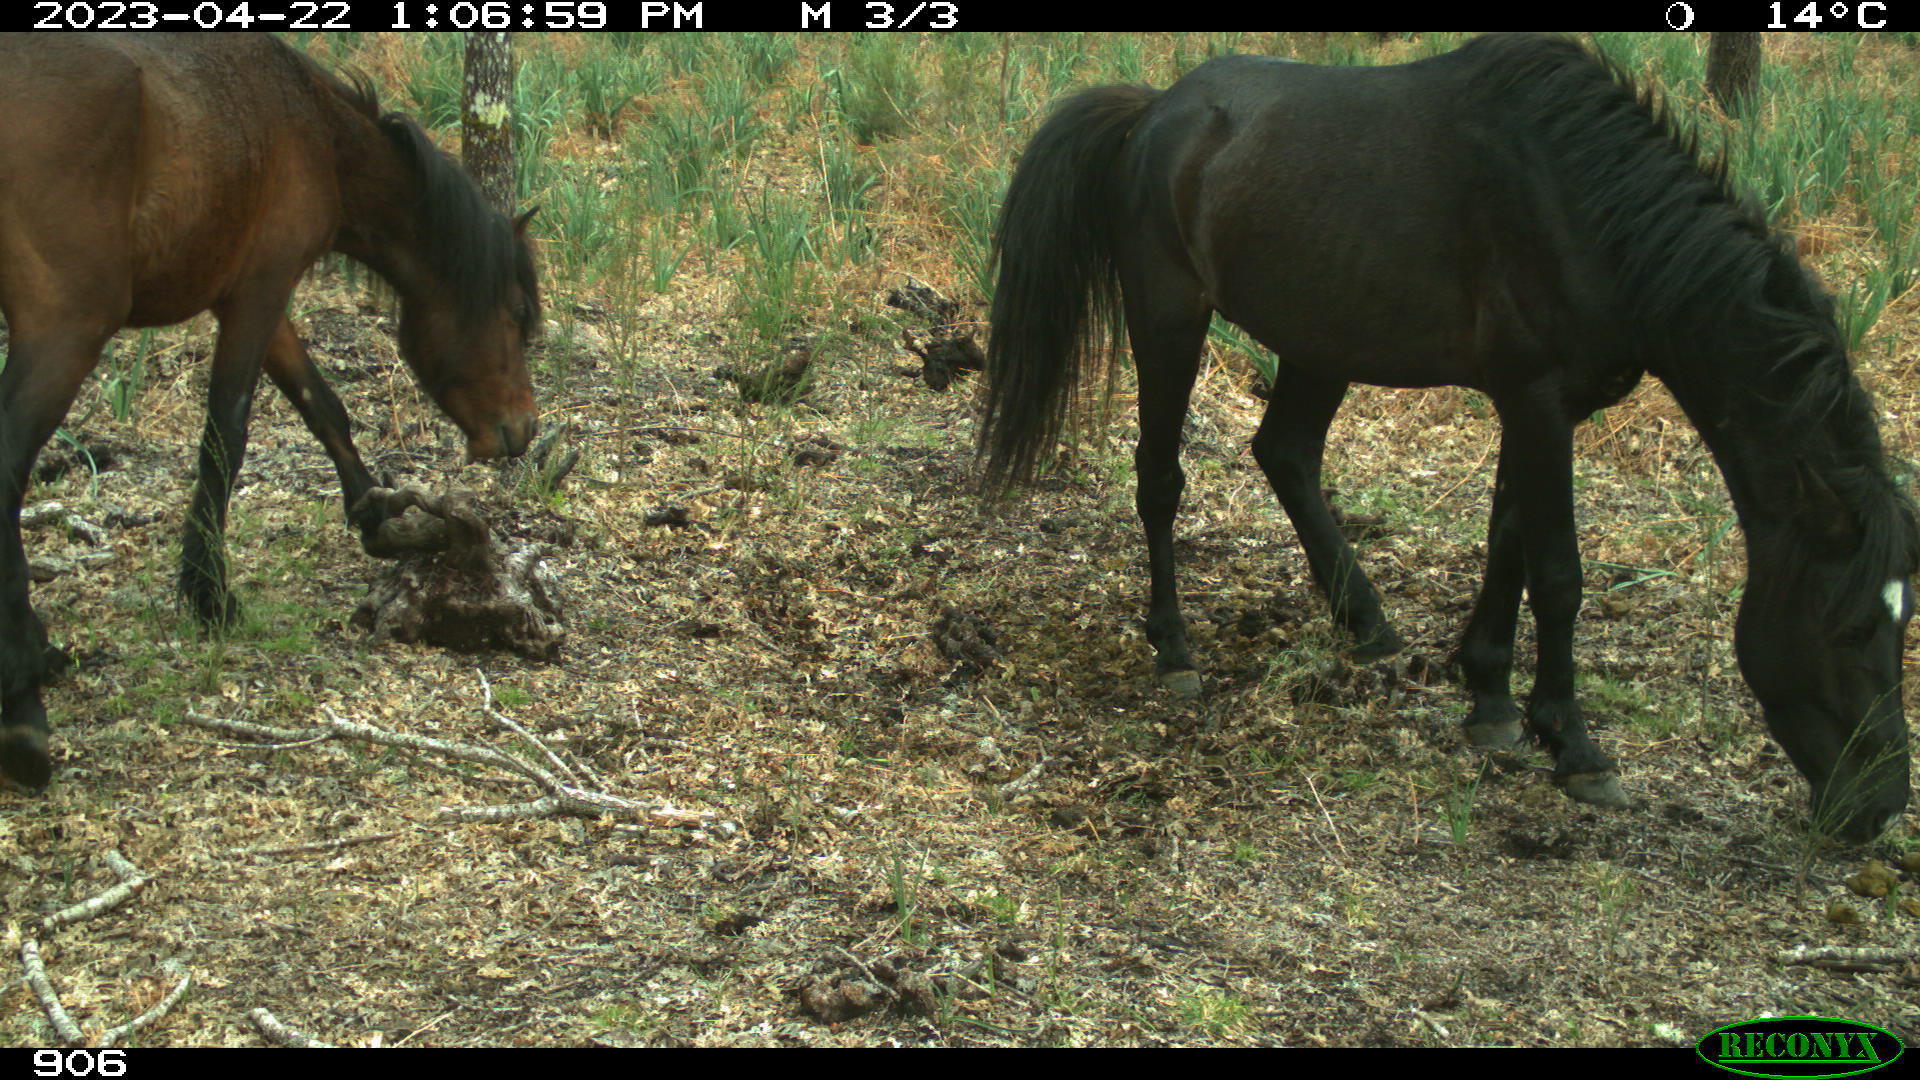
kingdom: Animalia
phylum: Chordata
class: Mammalia
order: Perissodactyla
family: Equidae
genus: Equus
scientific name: Equus caballus
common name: Horse
